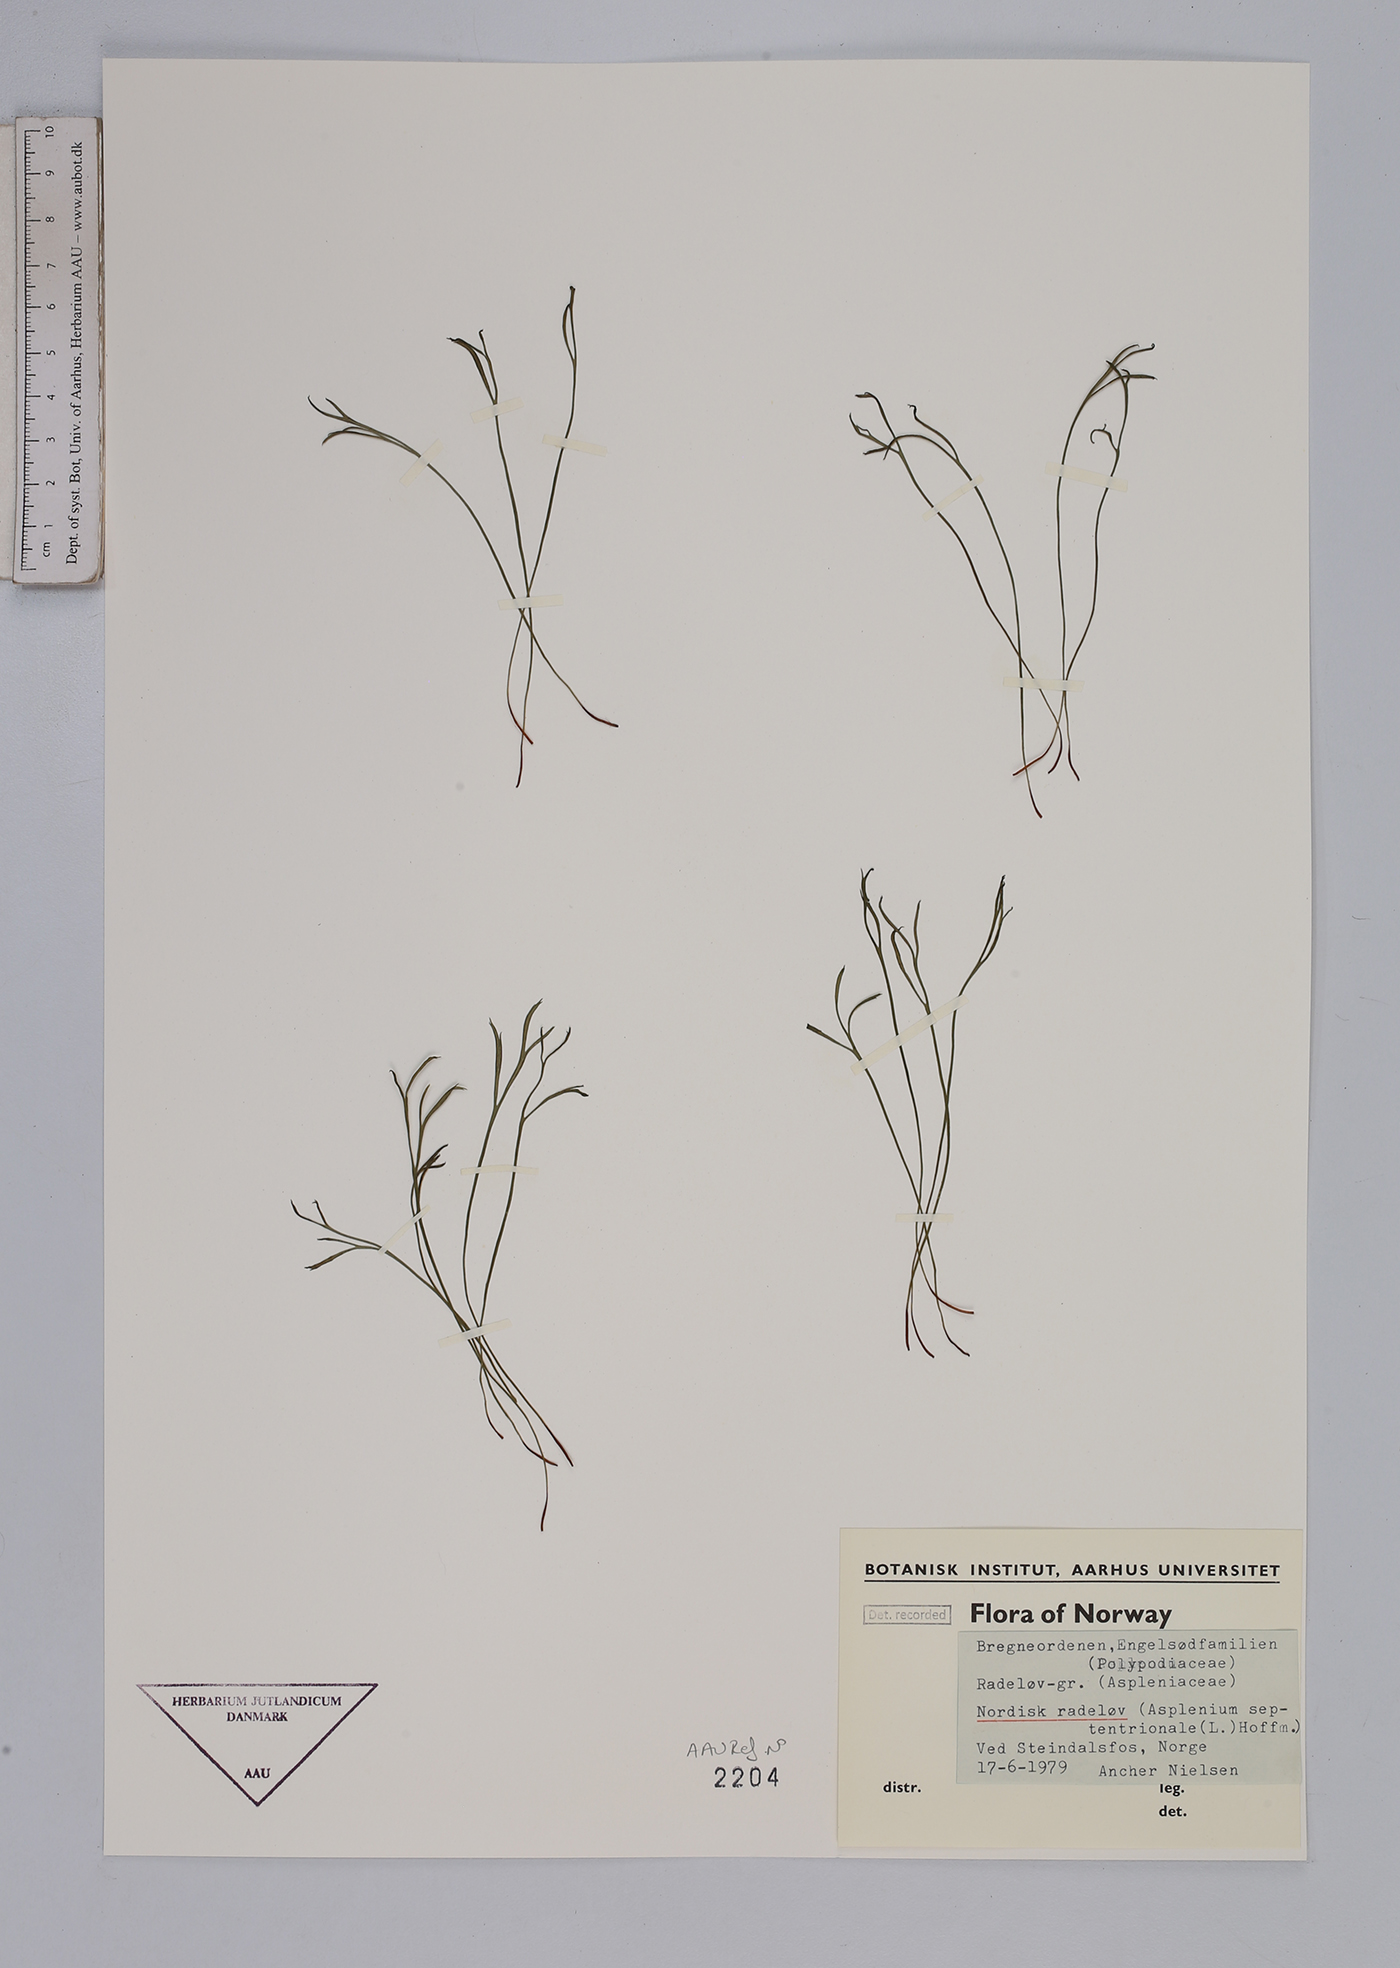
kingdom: Plantae
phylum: Tracheophyta
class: Polypodiopsida
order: Polypodiales
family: Aspleniaceae
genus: Asplenium
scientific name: Asplenium septentrionale
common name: Forked spleenwort
